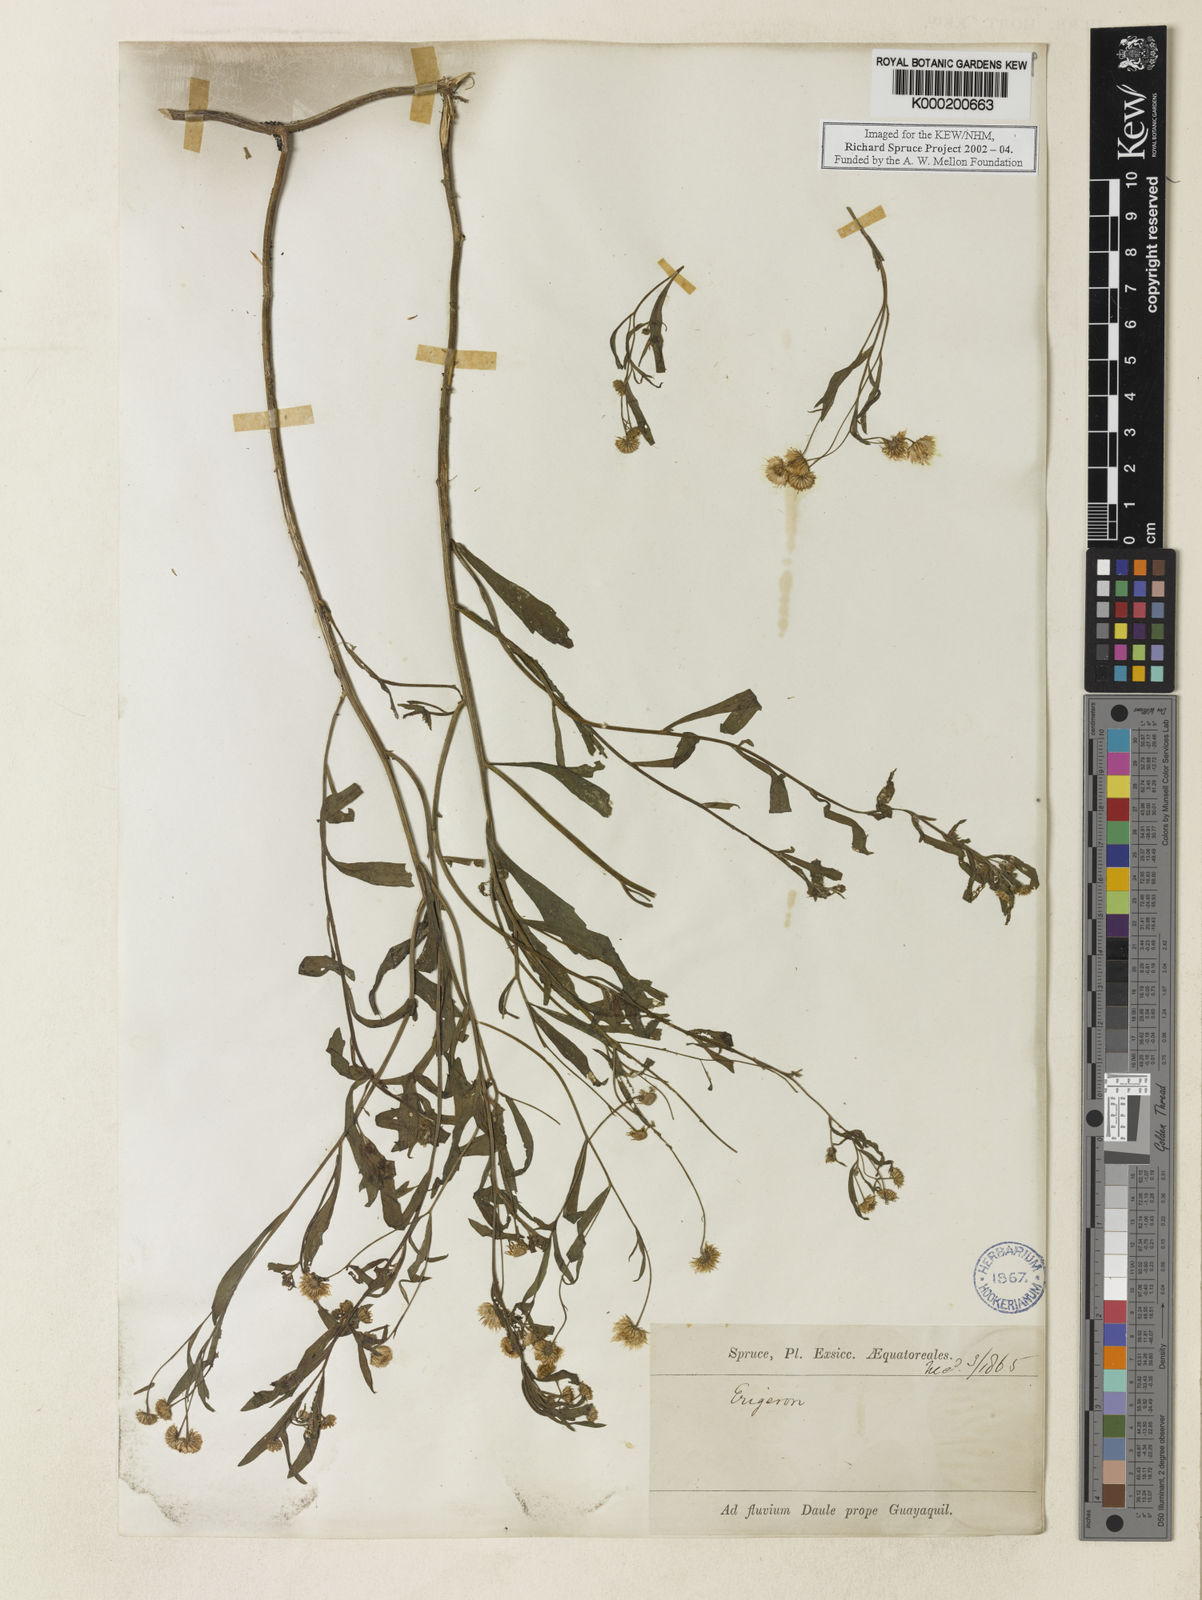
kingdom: Plantae
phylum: Tracheophyta
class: Magnoliopsida
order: Asterales
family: Asteraceae
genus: Erigeron
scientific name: Erigeron
